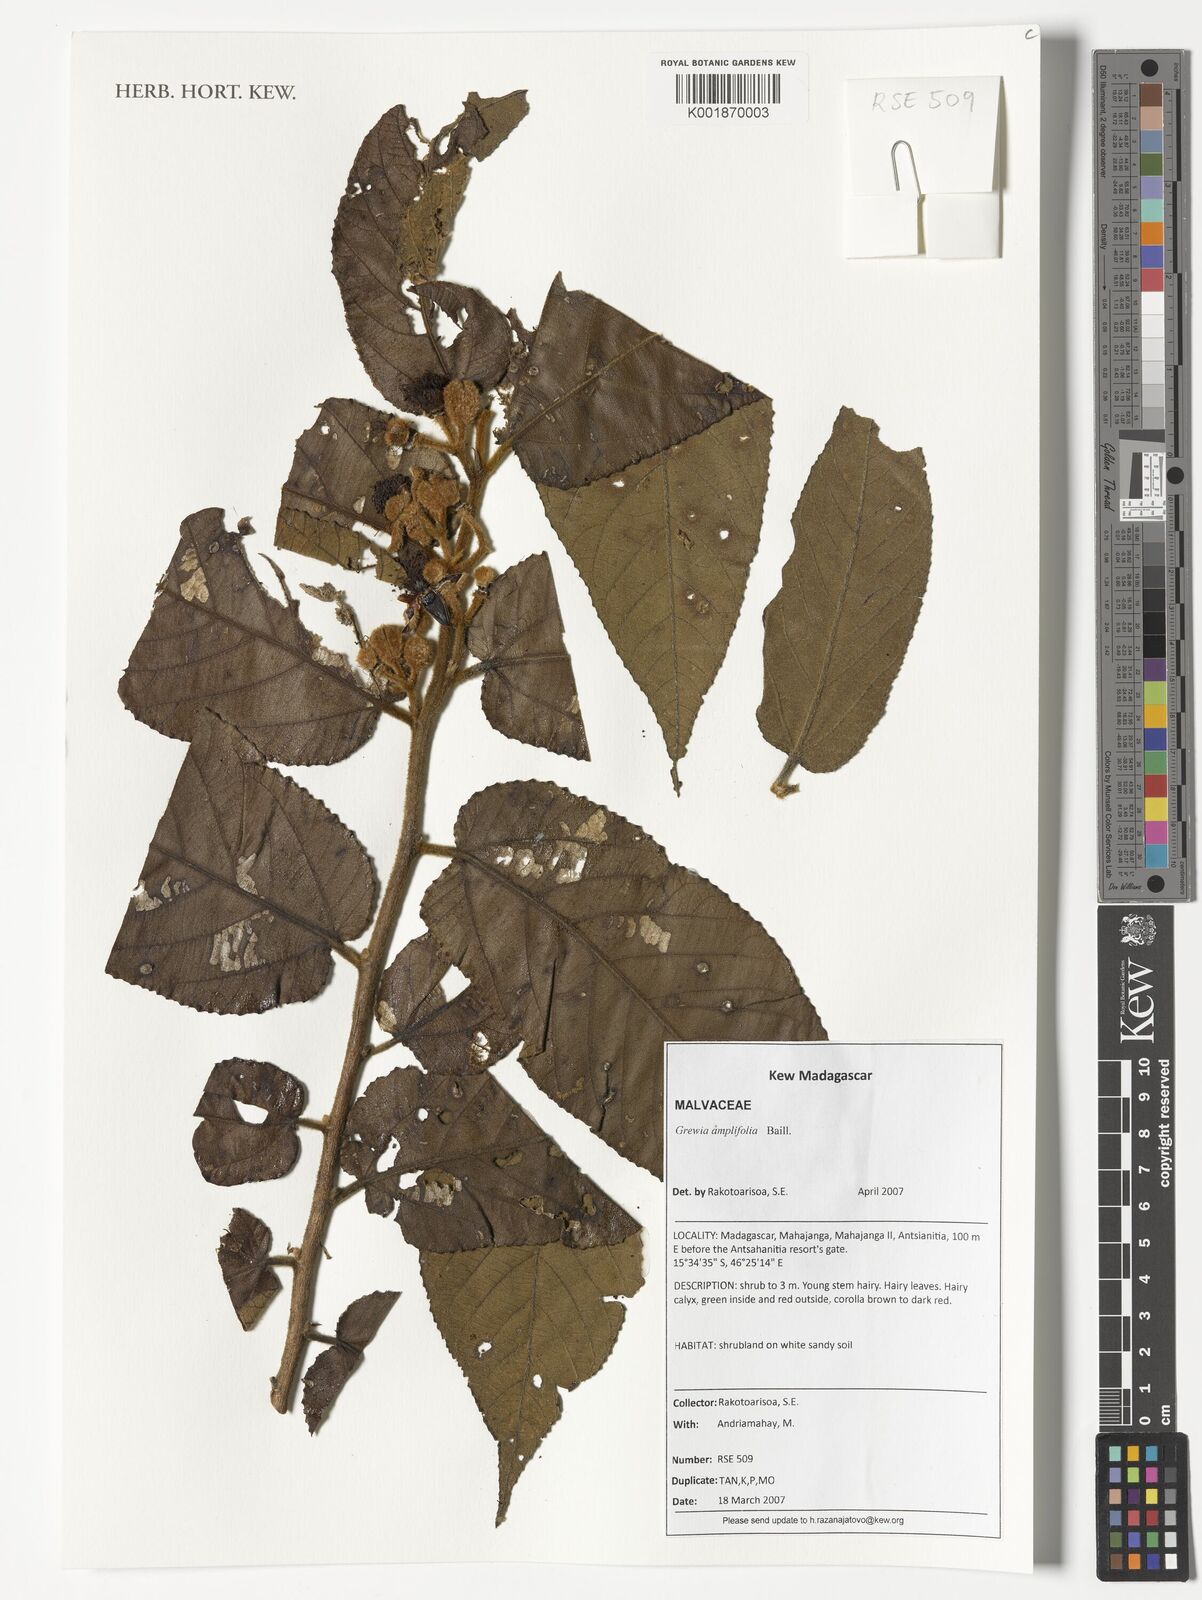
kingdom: Plantae
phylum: Tracheophyta
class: Magnoliopsida
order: Malvales
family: Malvaceae
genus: Grewia
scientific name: Grewia amplifolia
